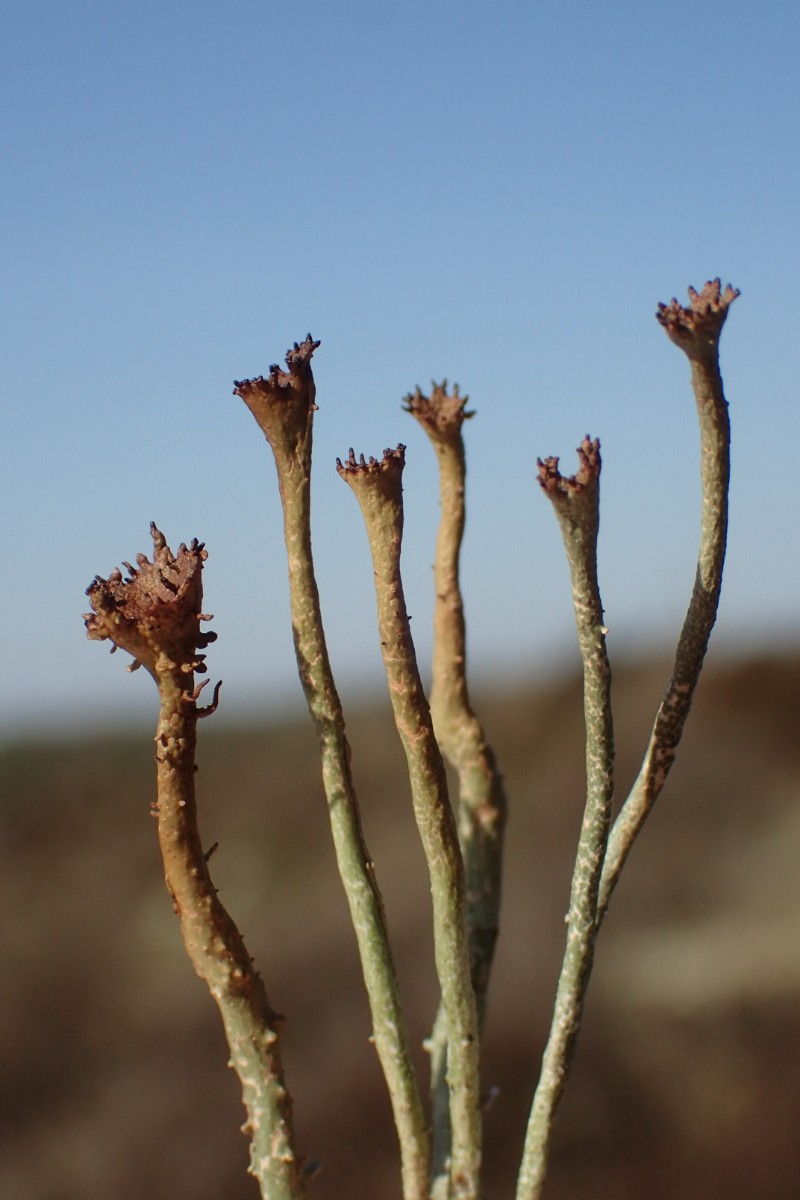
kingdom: Fungi
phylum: Ascomycota
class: Lecanoromycetes
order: Lecanorales
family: Cladoniaceae
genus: Cladonia
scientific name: Cladonia gracilis
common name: slank bægerlav
